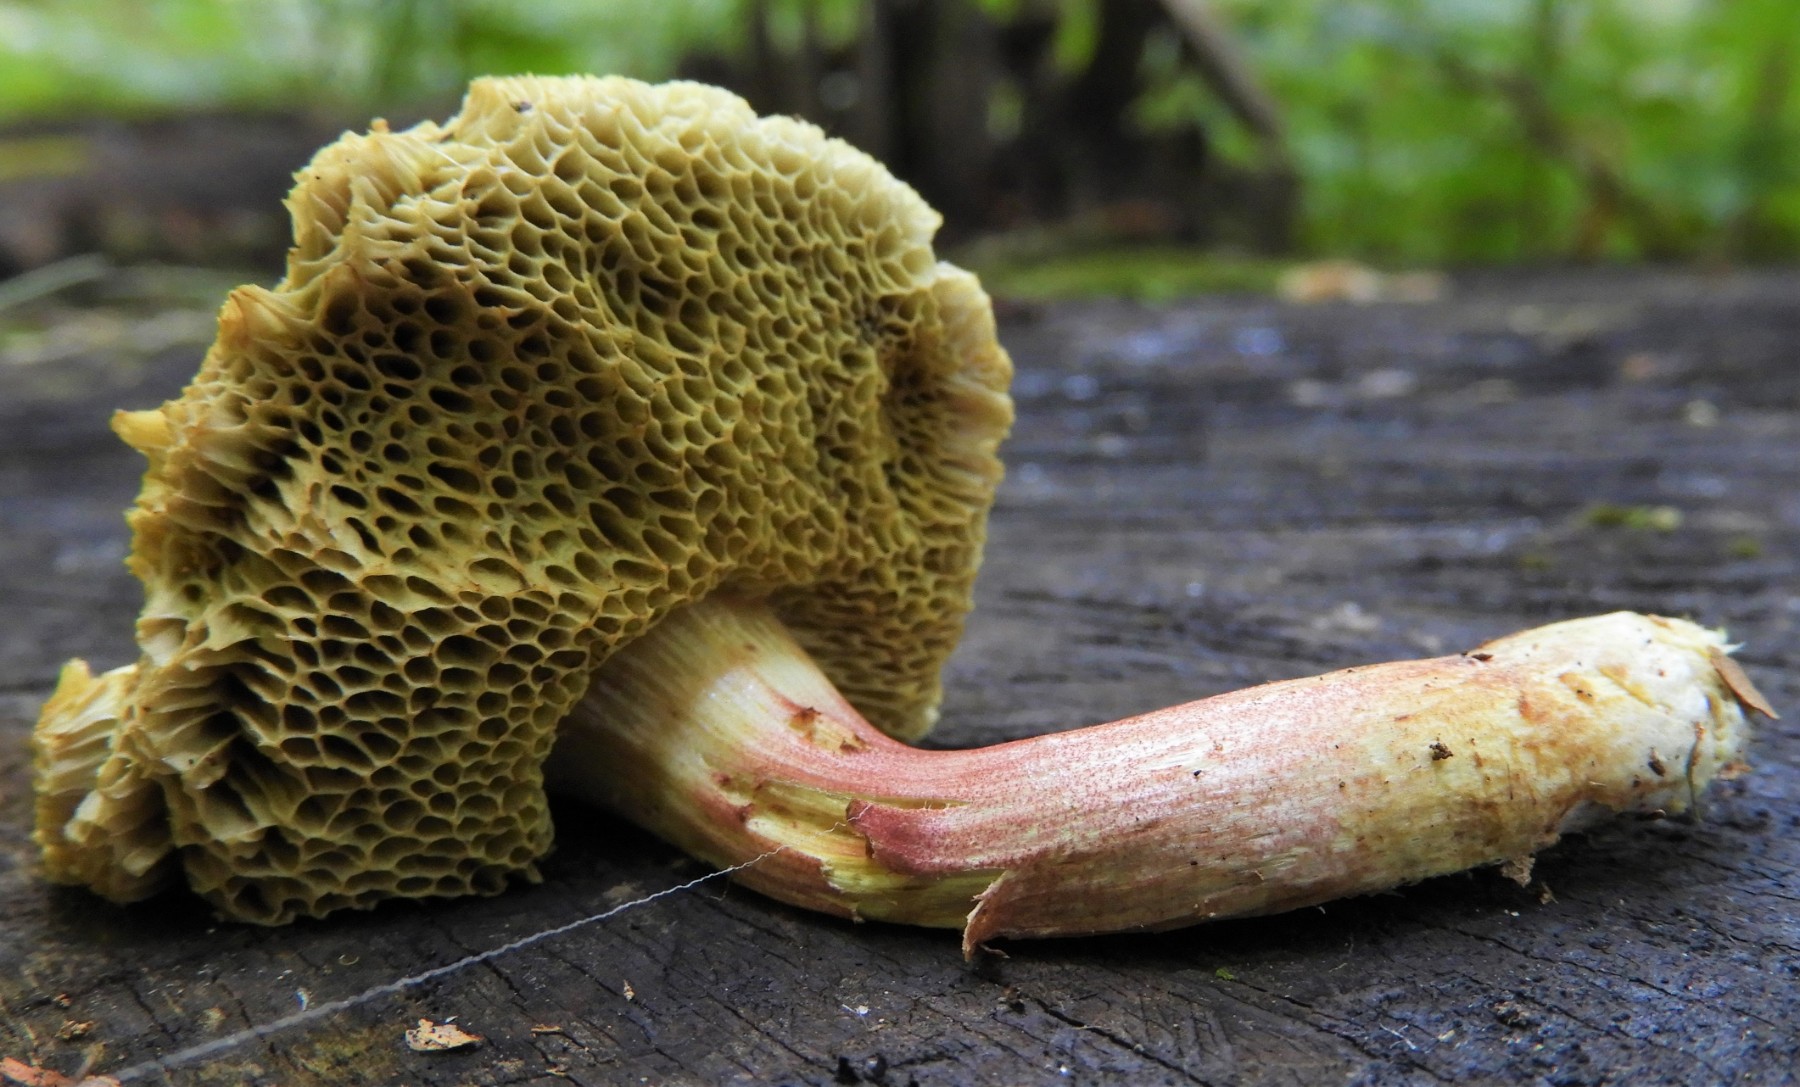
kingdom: Fungi
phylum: Basidiomycota
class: Agaricomycetes
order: Boletales
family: Boletaceae
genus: Xerocomellus
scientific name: Xerocomellus chrysenteron
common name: rødsprukken rørhat
